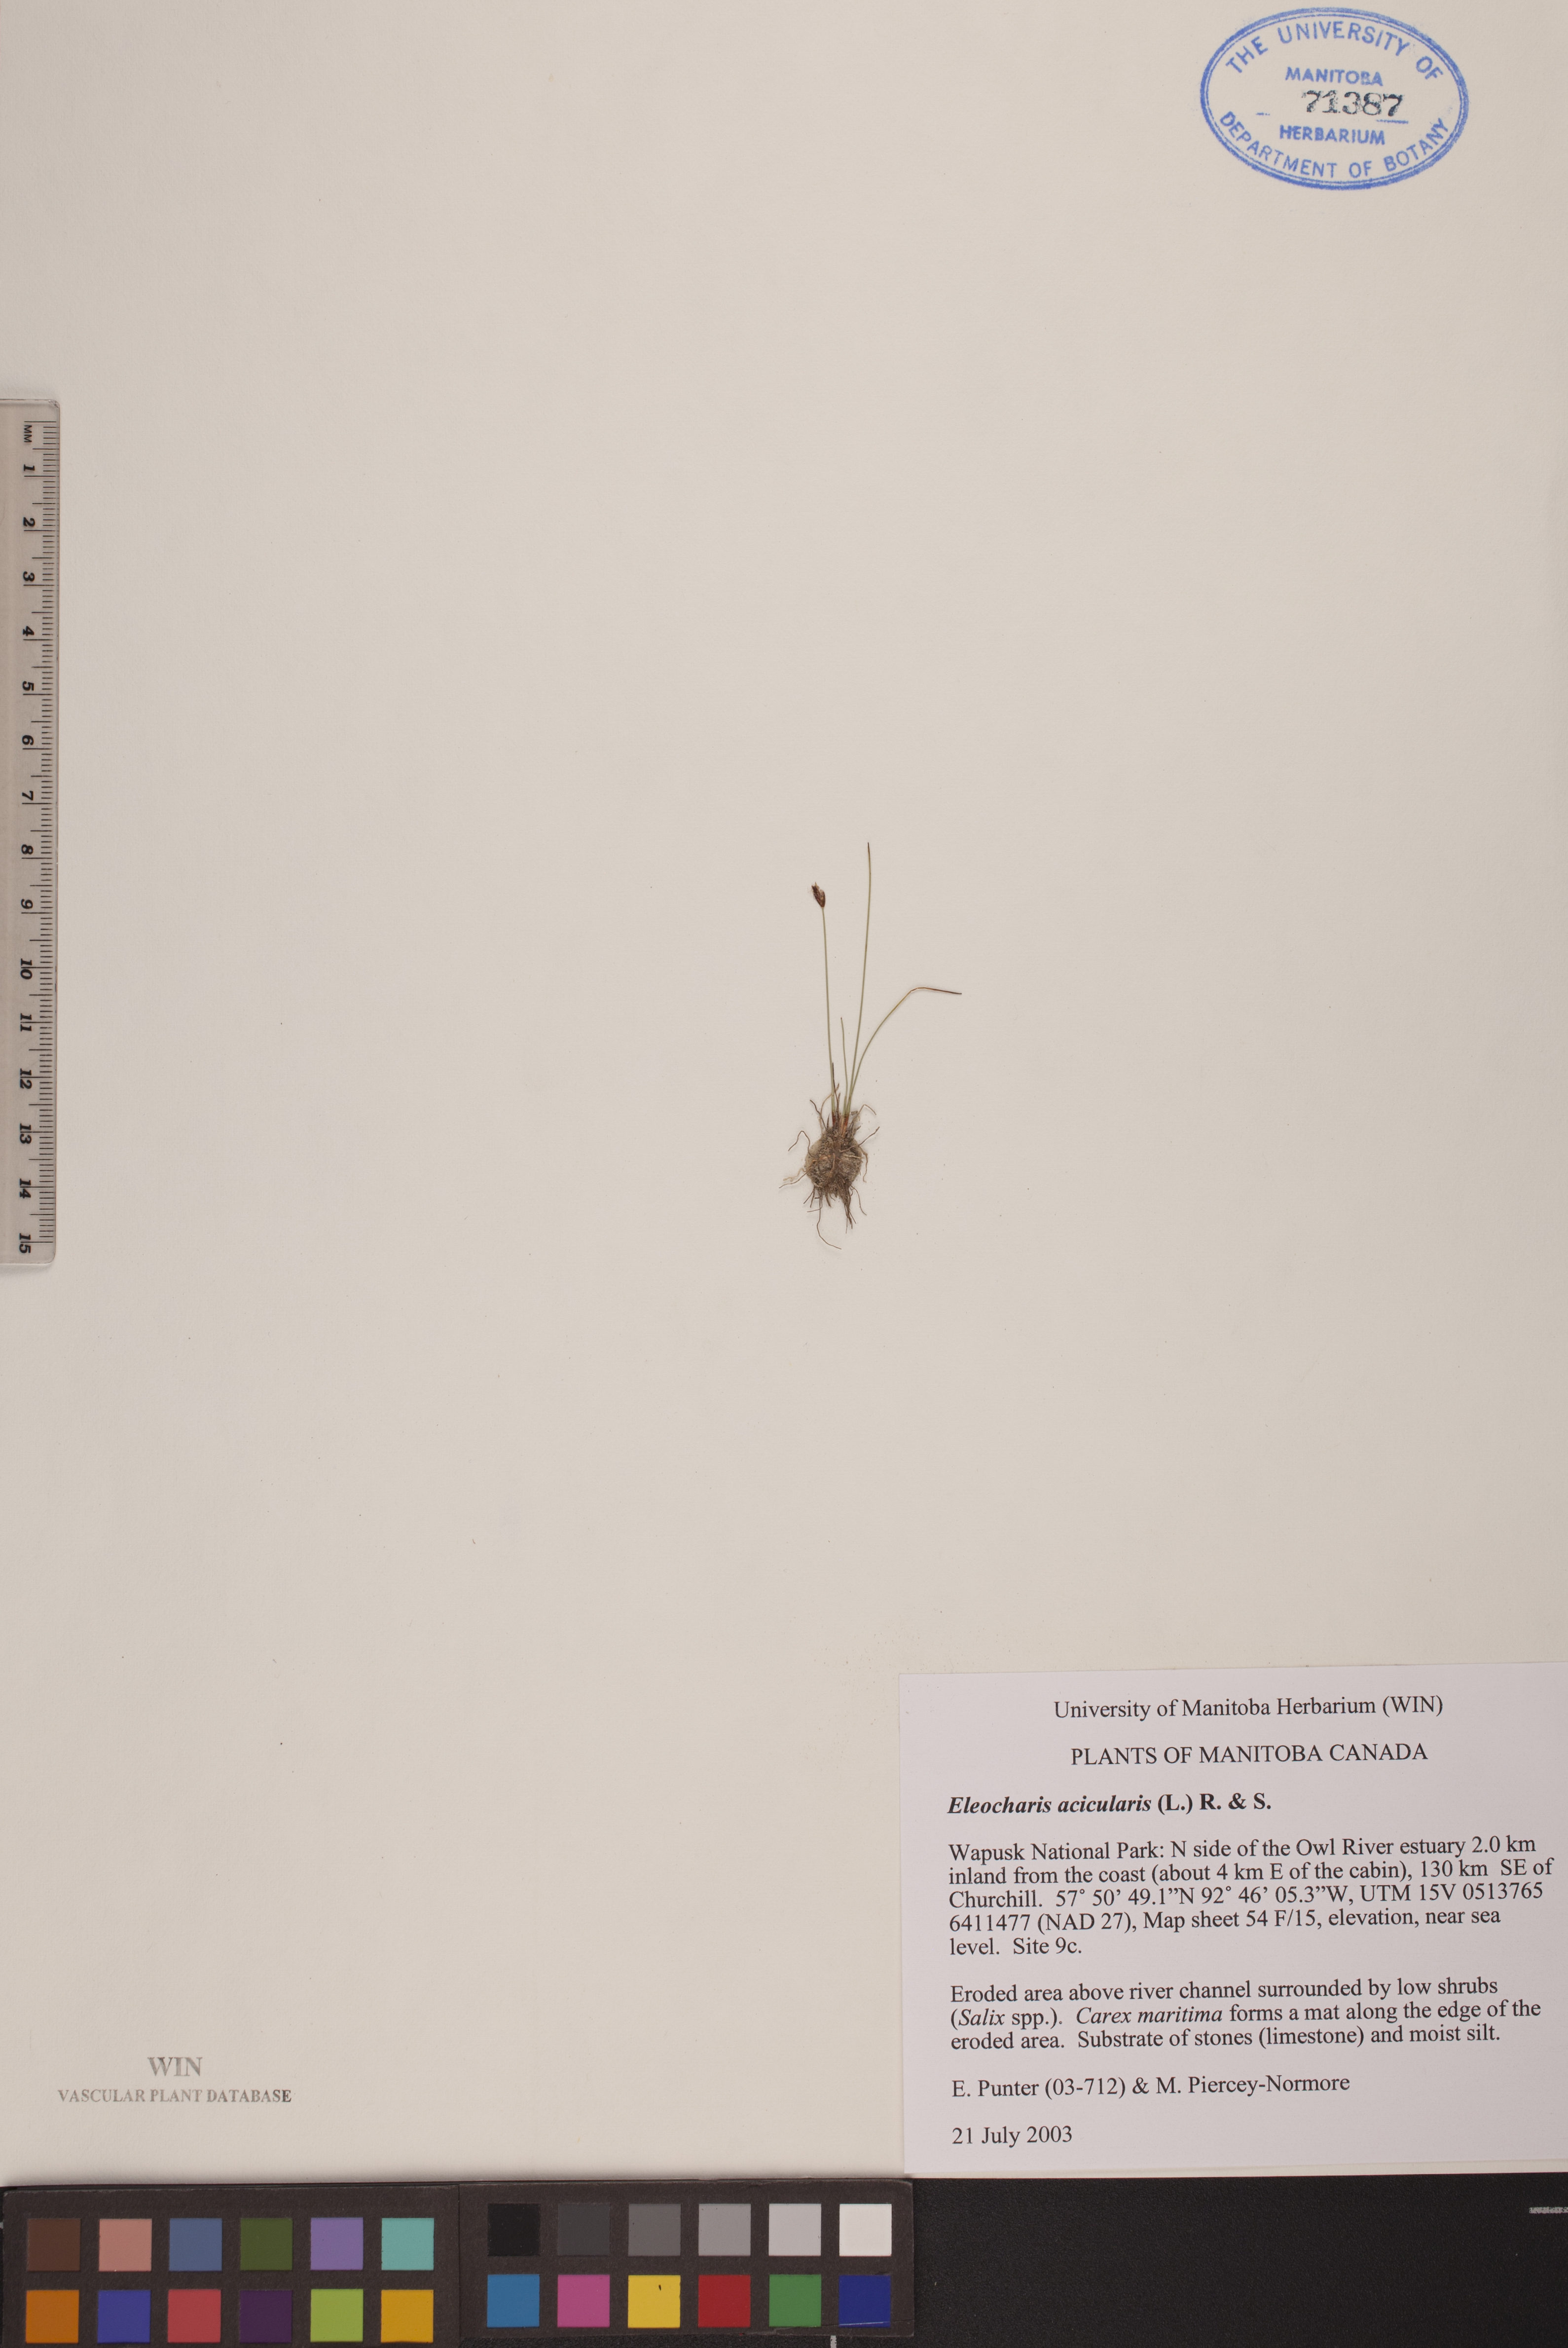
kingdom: Plantae
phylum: Tracheophyta
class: Liliopsida
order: Poales
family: Cyperaceae
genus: Eleocharis
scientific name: Eleocharis acicularis
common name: Needle spike-rush
